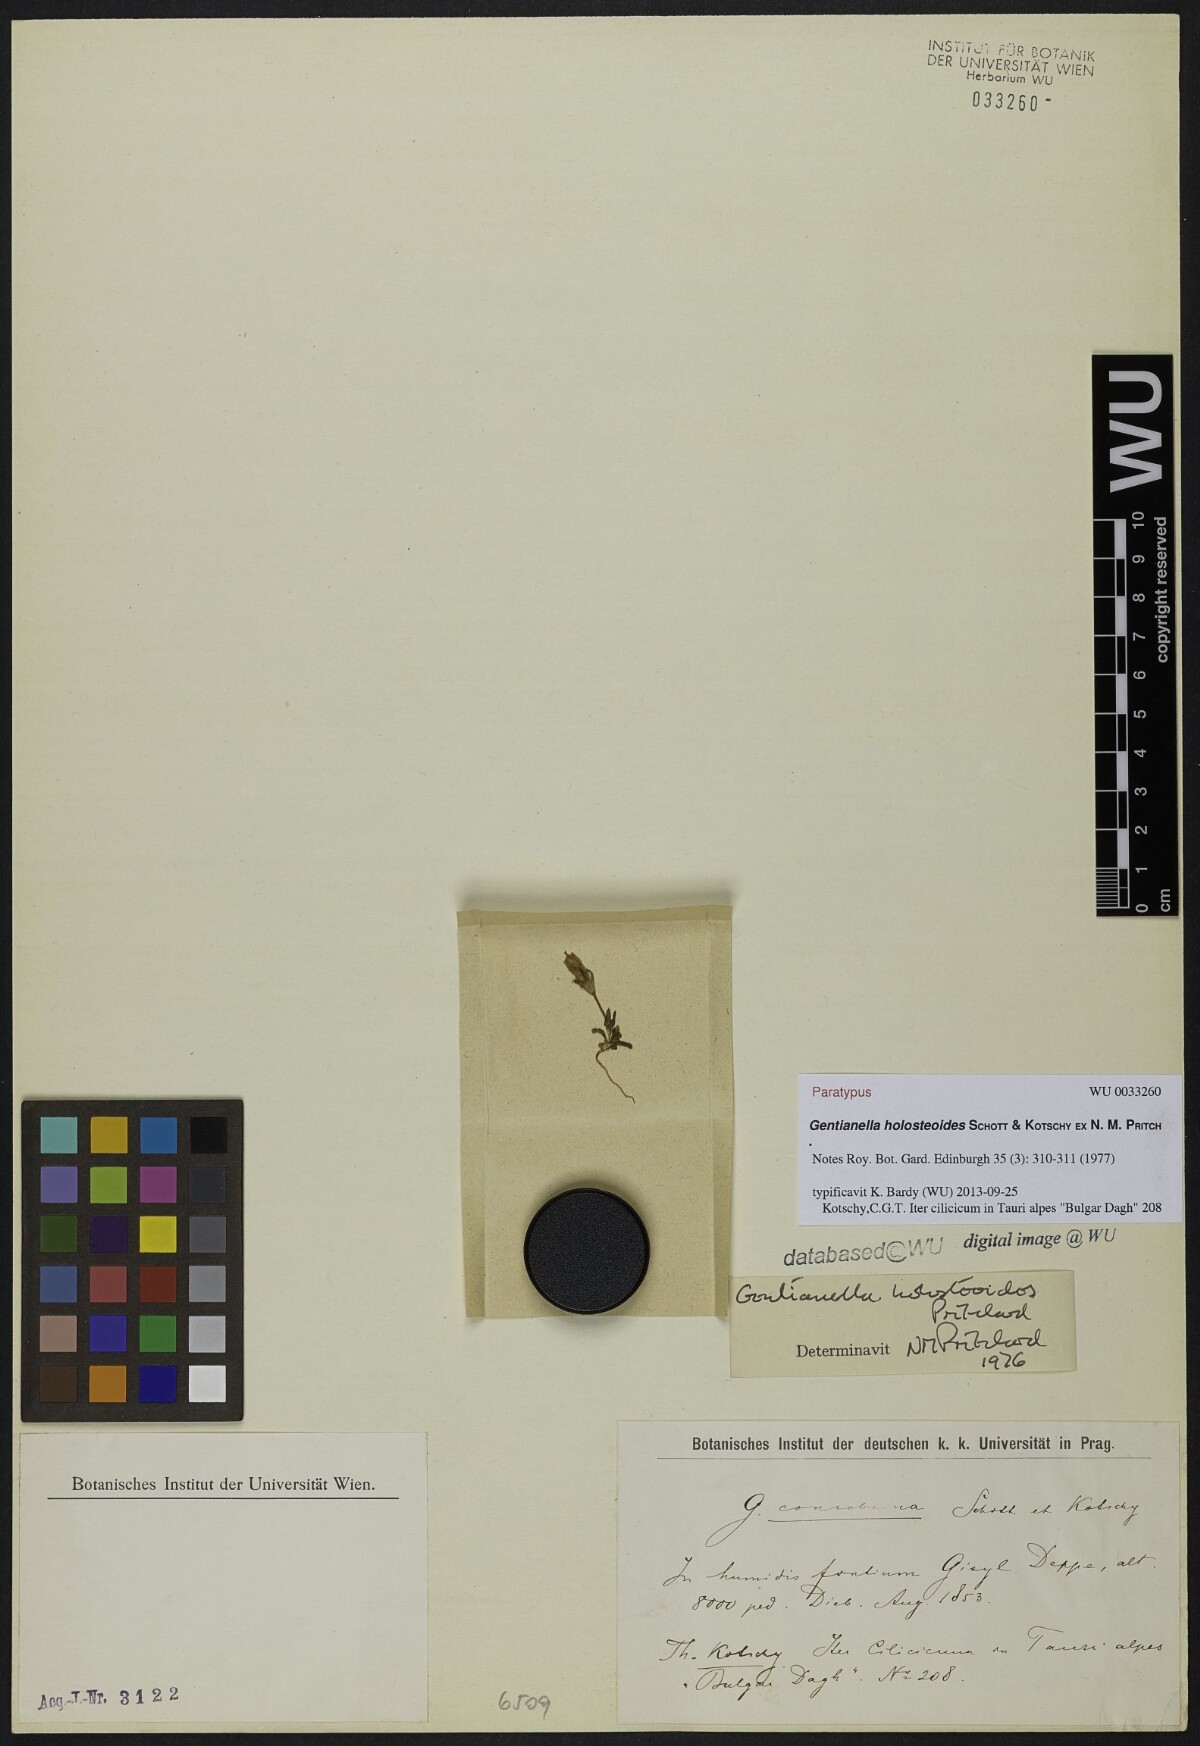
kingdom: Plantae
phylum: Tracheophyta
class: Magnoliopsida
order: Gentianales
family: Gentianaceae
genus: Gentianella
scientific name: Gentianella holosteoides
